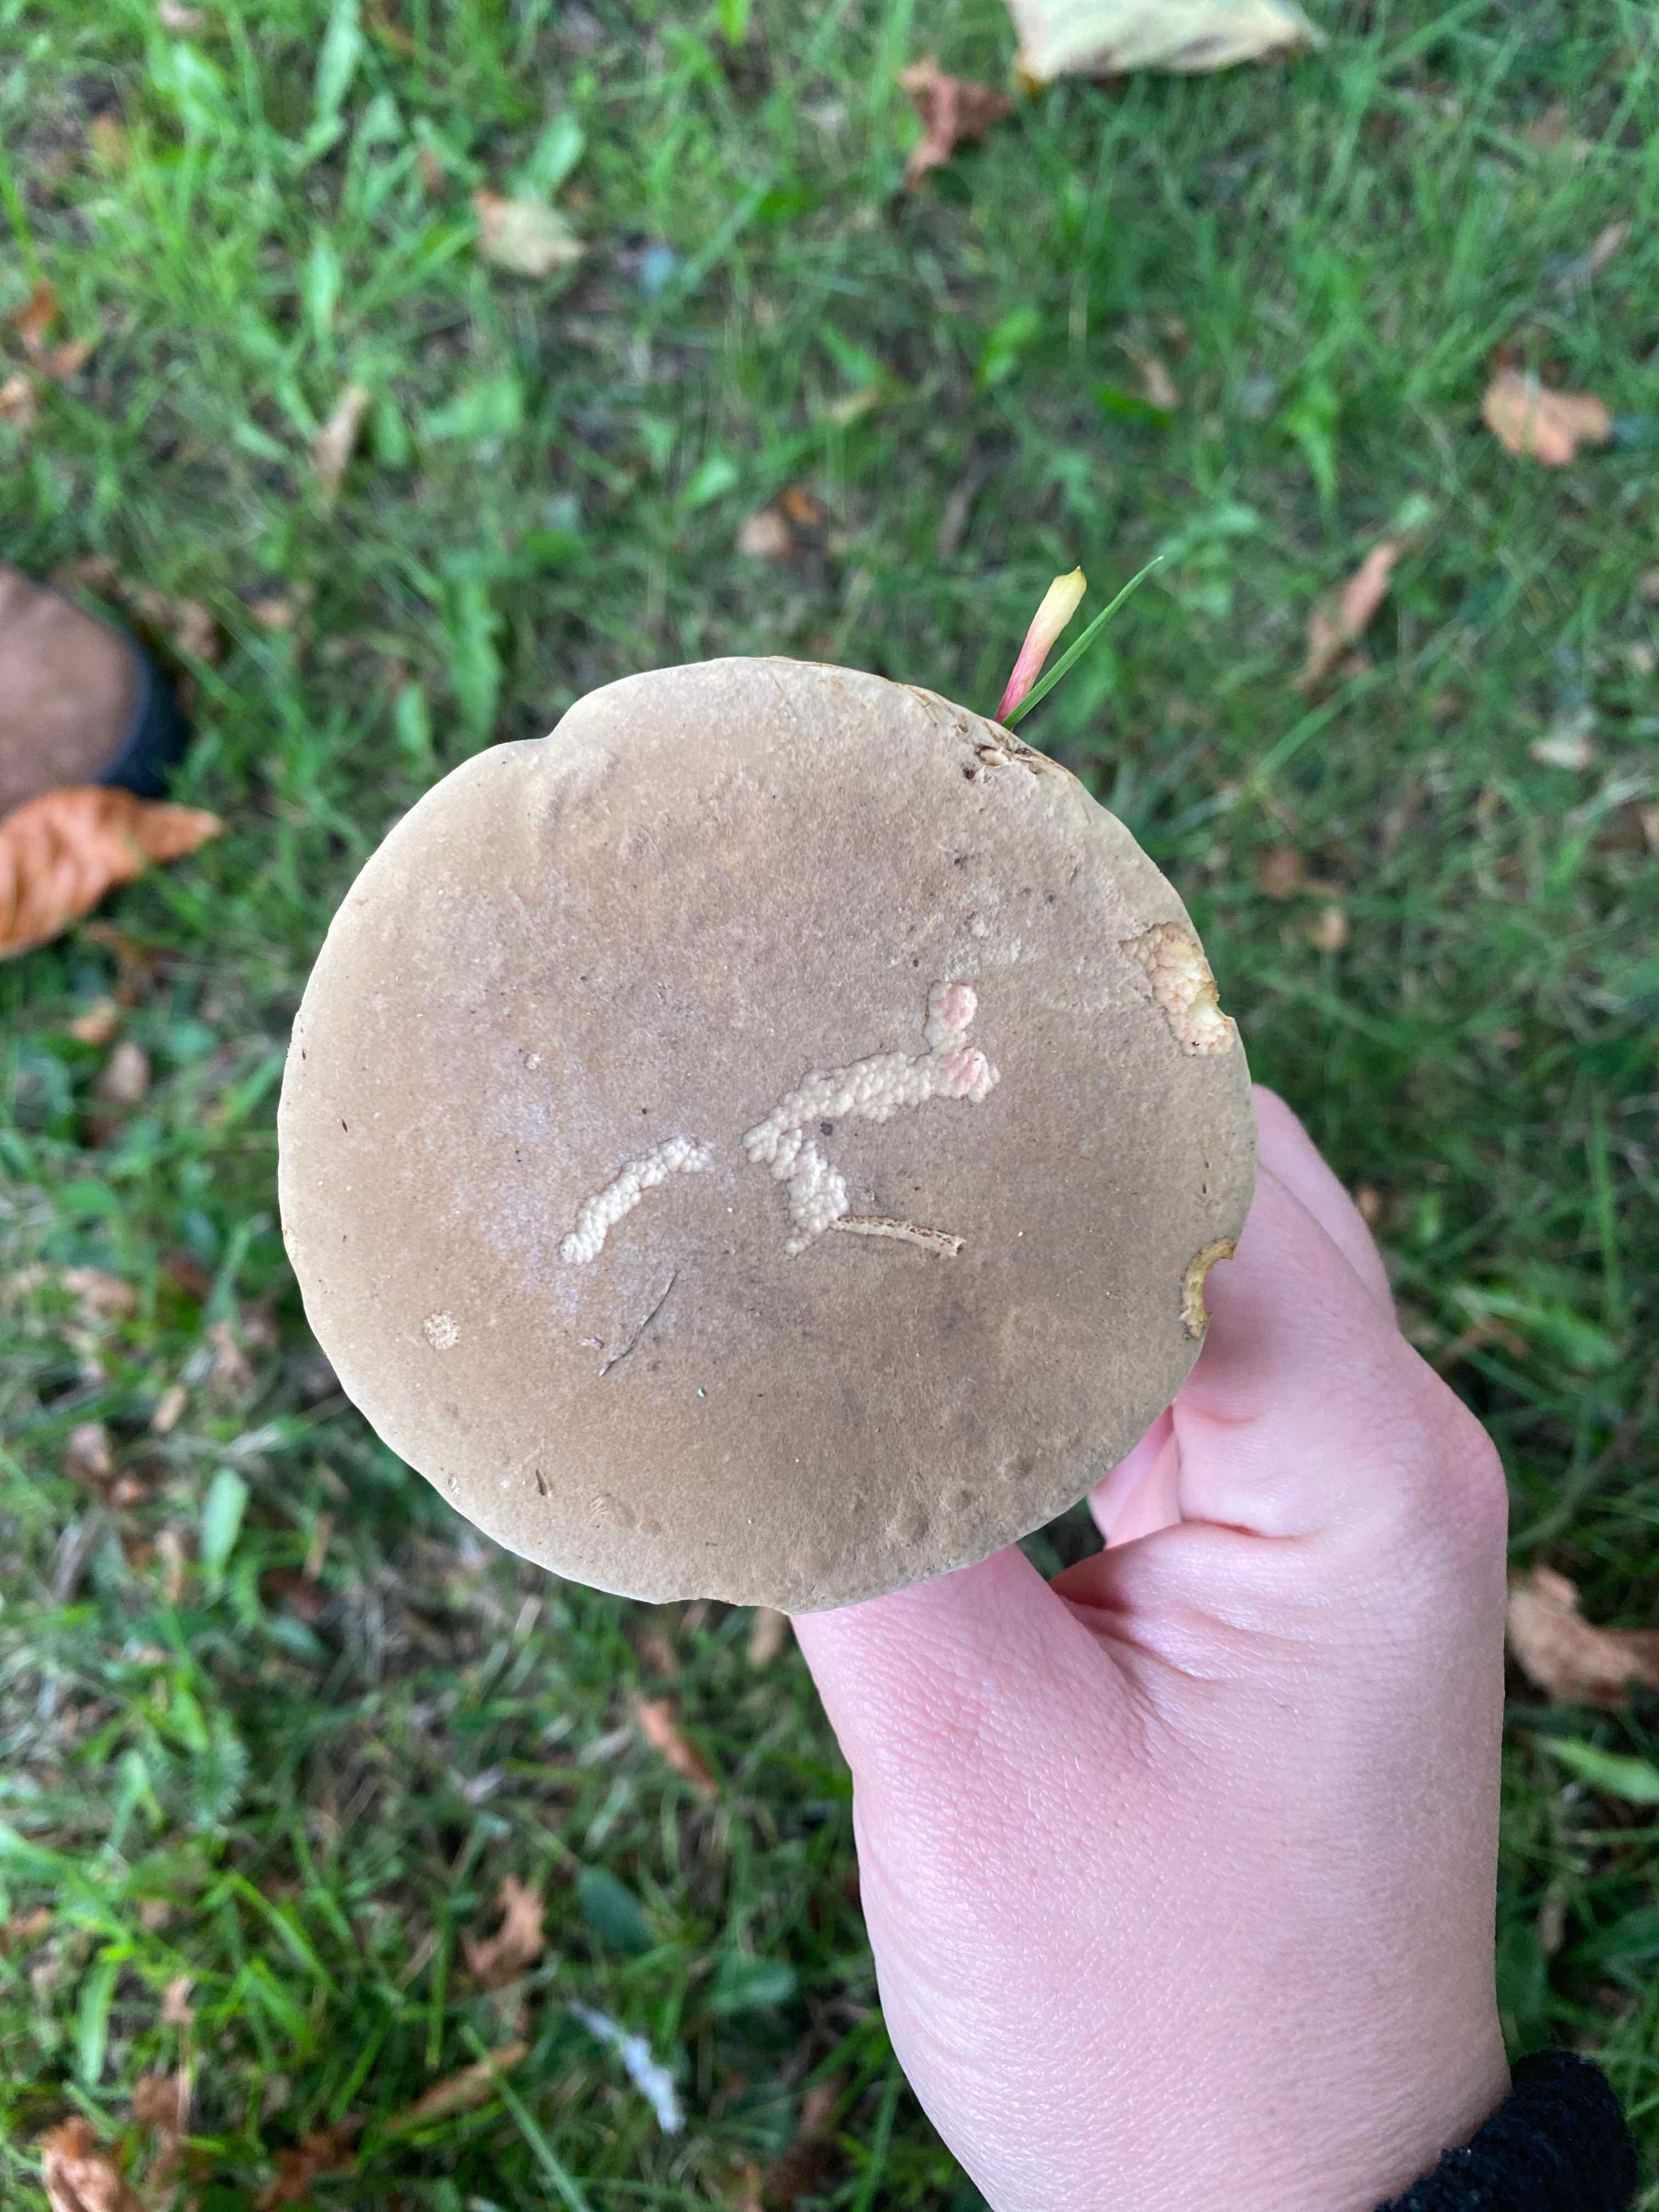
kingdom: Fungi
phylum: Basidiomycota
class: Agaricomycetes
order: Boletales
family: Boletaceae
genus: Xerocomellus
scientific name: Xerocomellus
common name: dværgrørhat
